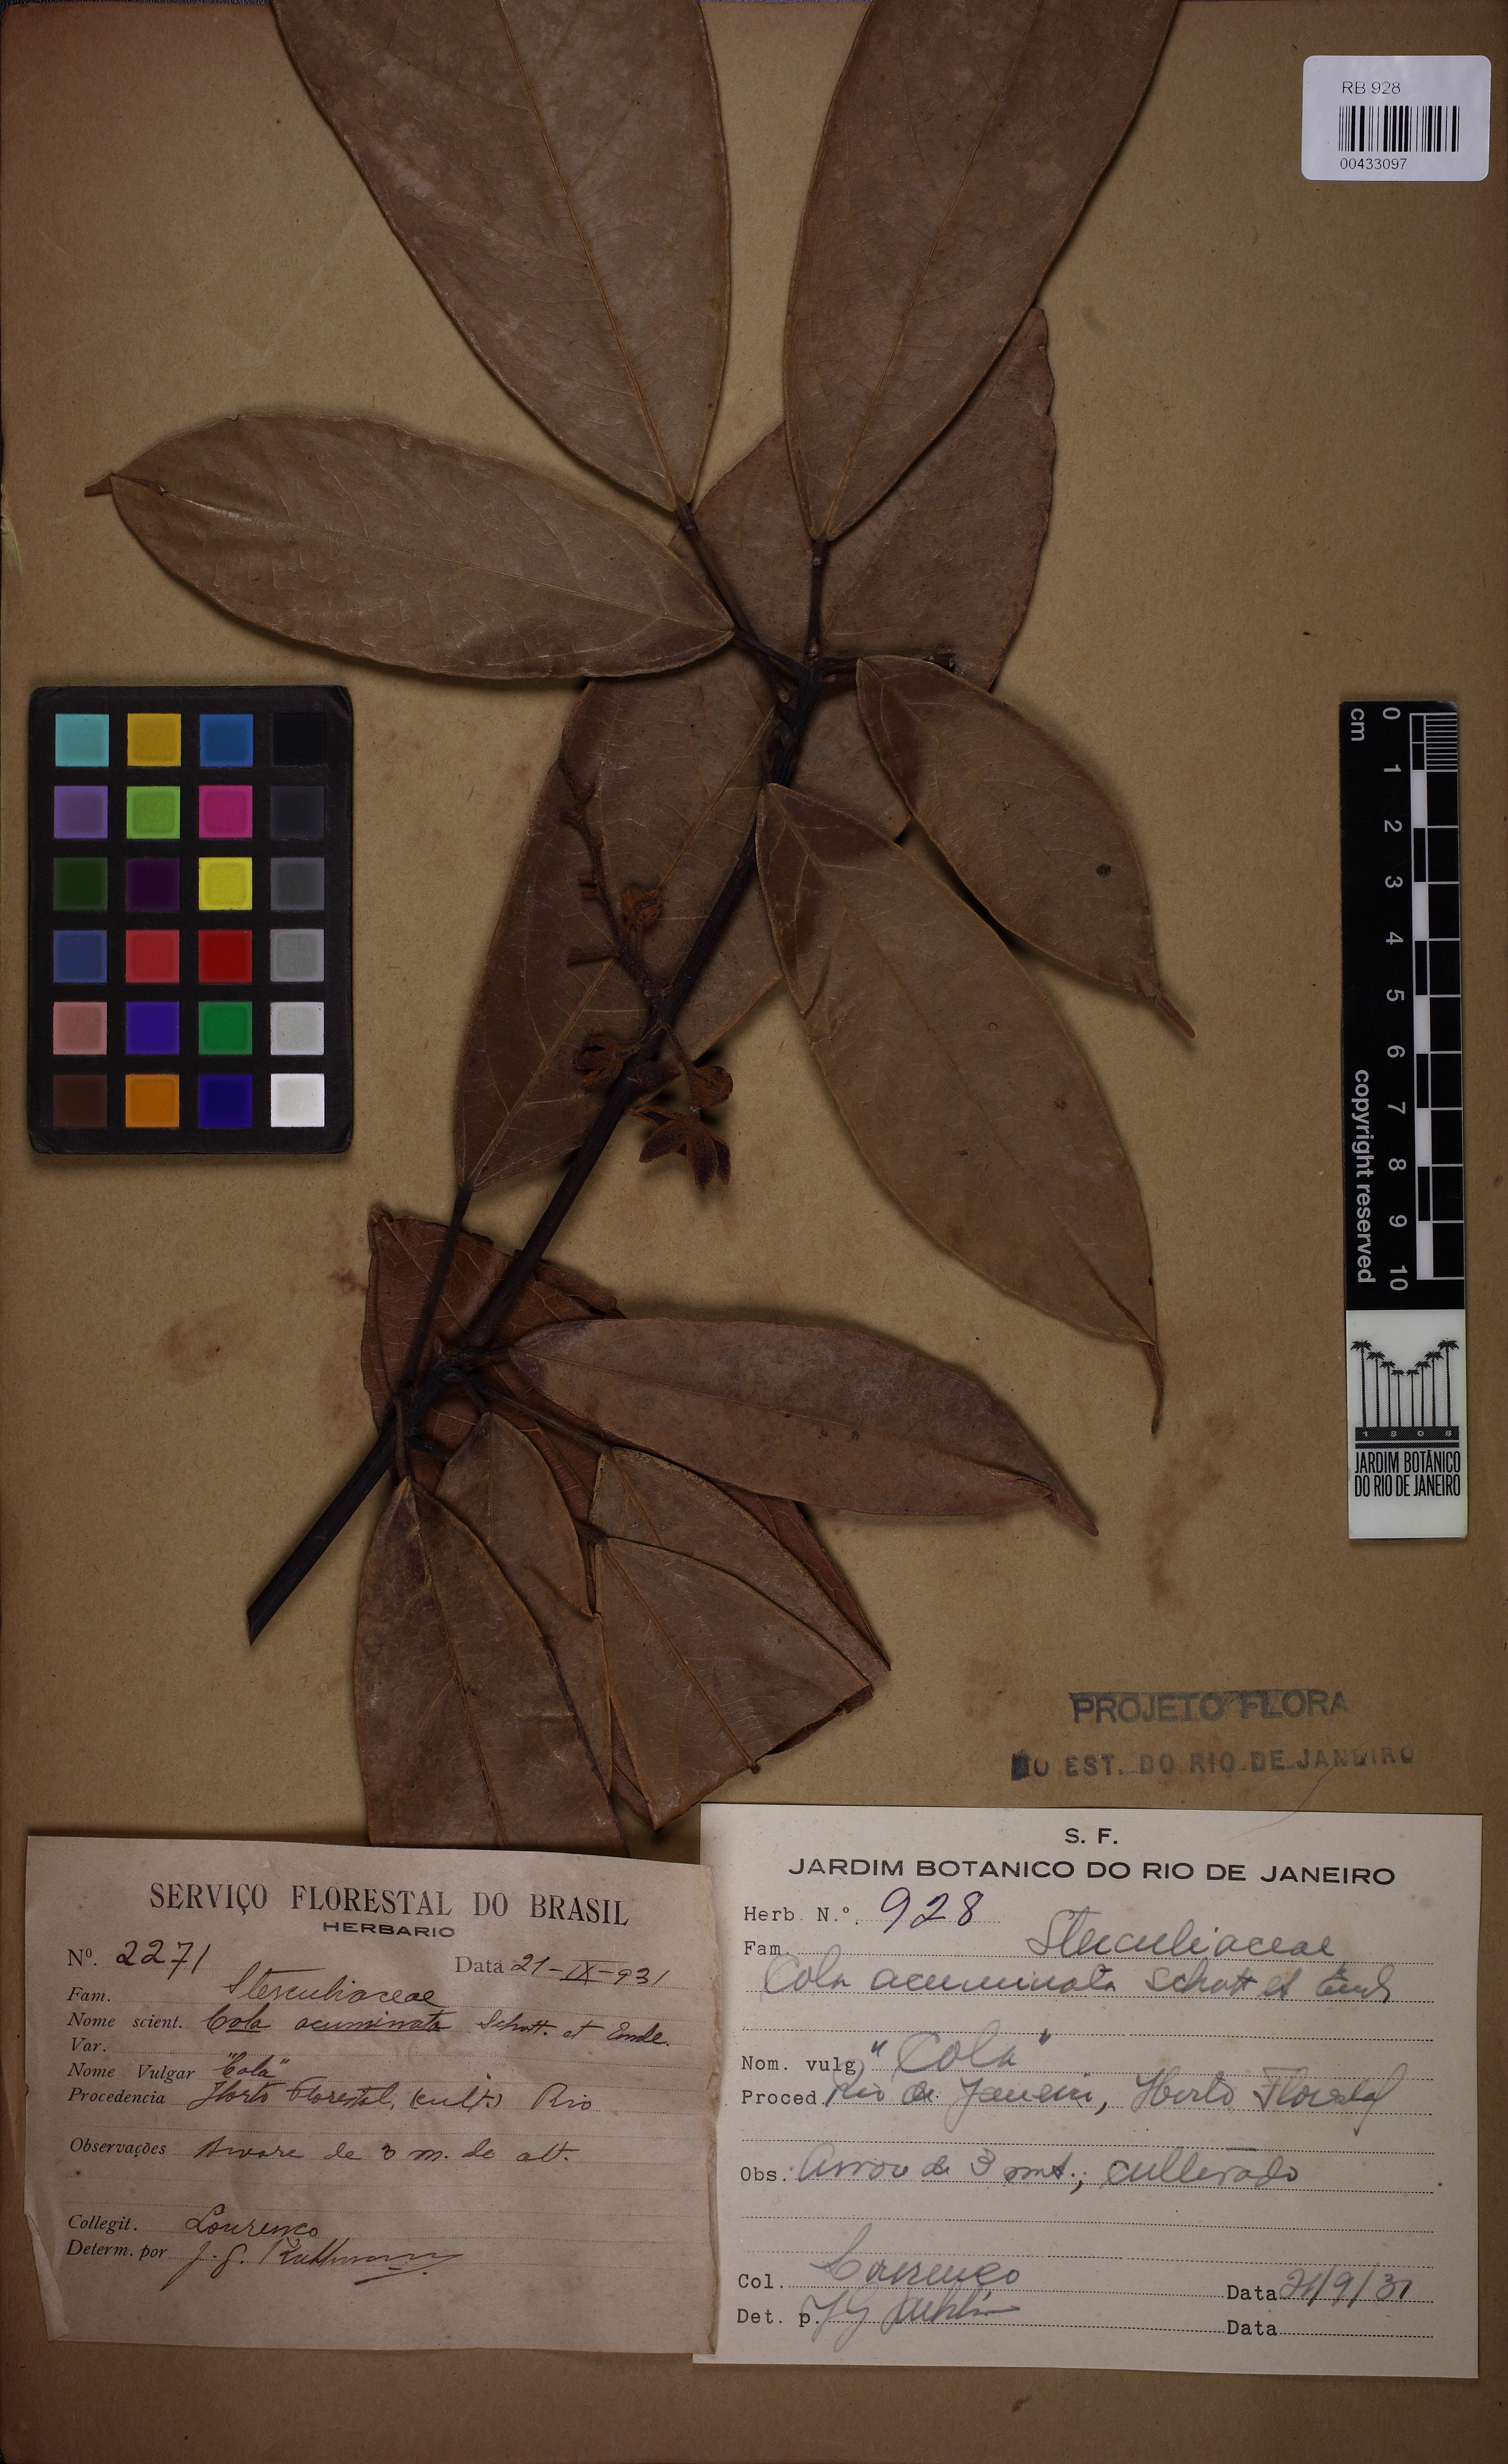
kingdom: Plantae
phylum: Tracheophyta
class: Magnoliopsida
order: Malvales
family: Malvaceae
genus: Cola
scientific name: Cola acuminata
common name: True kola
